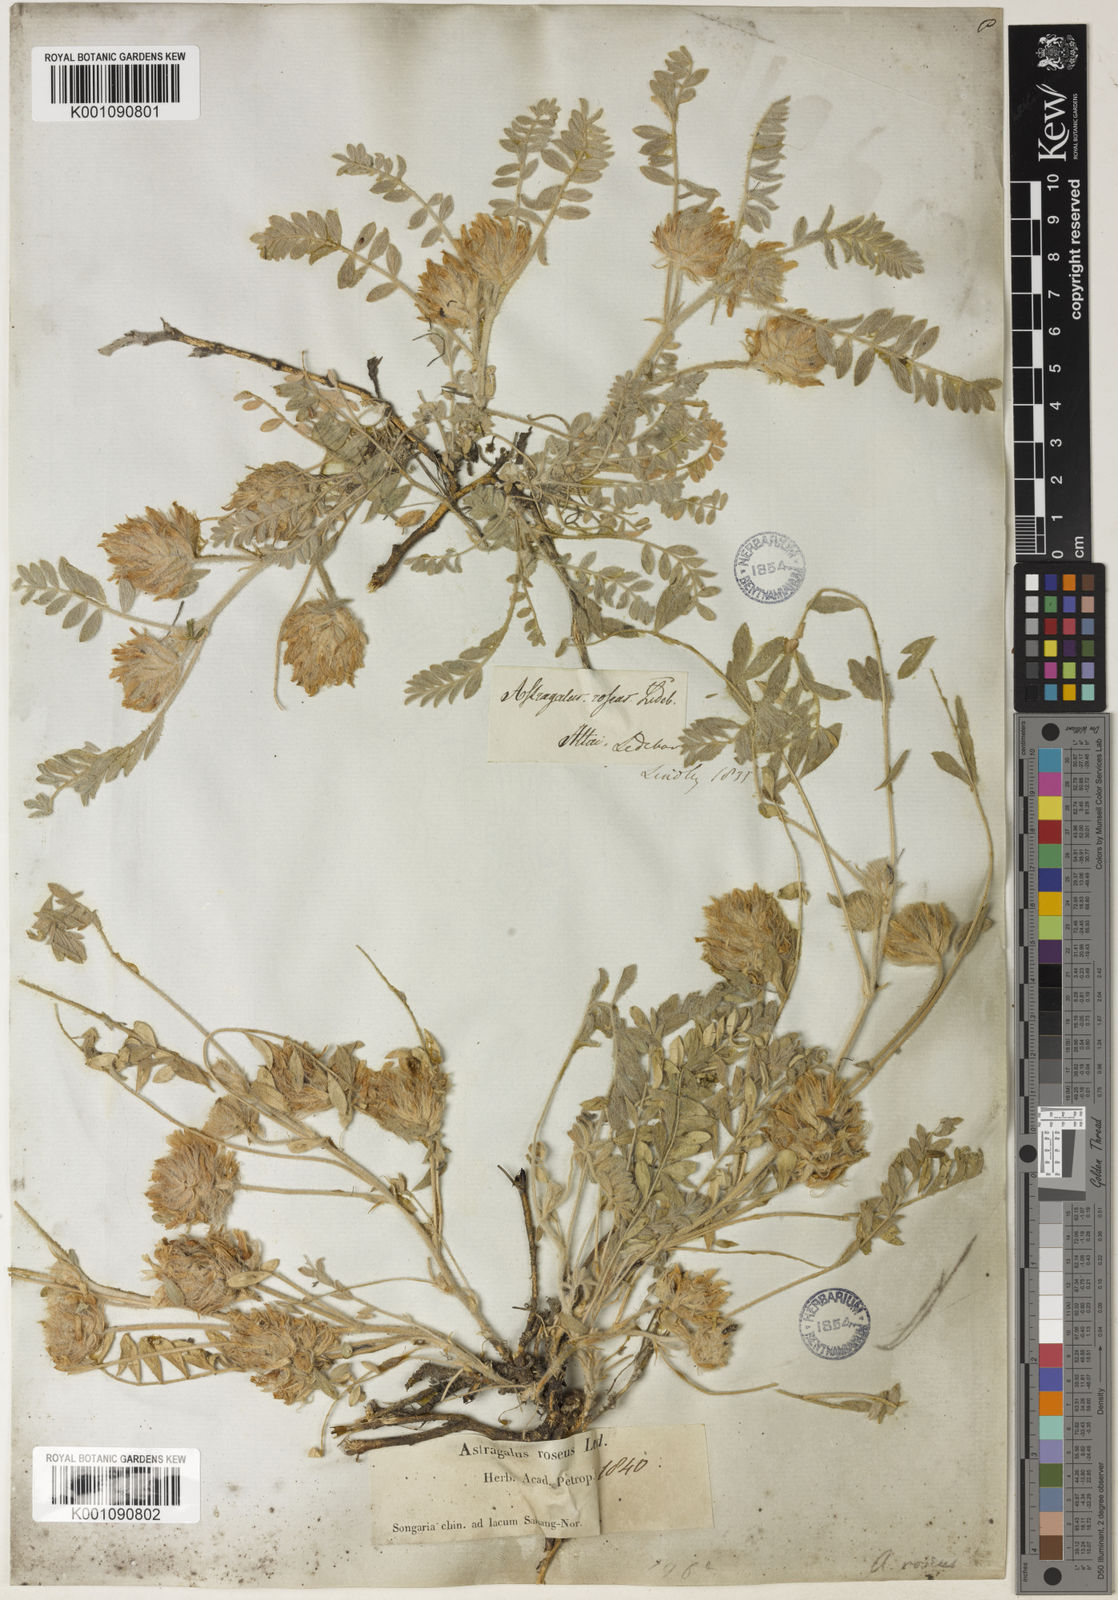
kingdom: Plantae
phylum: Tracheophyta
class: Magnoliopsida
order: Fabales
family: Fabaceae
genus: Astragalus
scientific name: Astragalus
